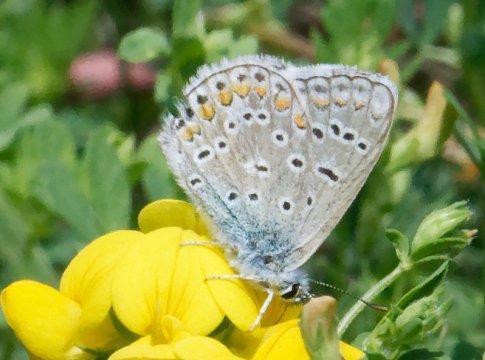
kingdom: Animalia
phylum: Arthropoda
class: Insecta
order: Lepidoptera
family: Lycaenidae
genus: Polyommatus
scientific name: Polyommatus icarus
